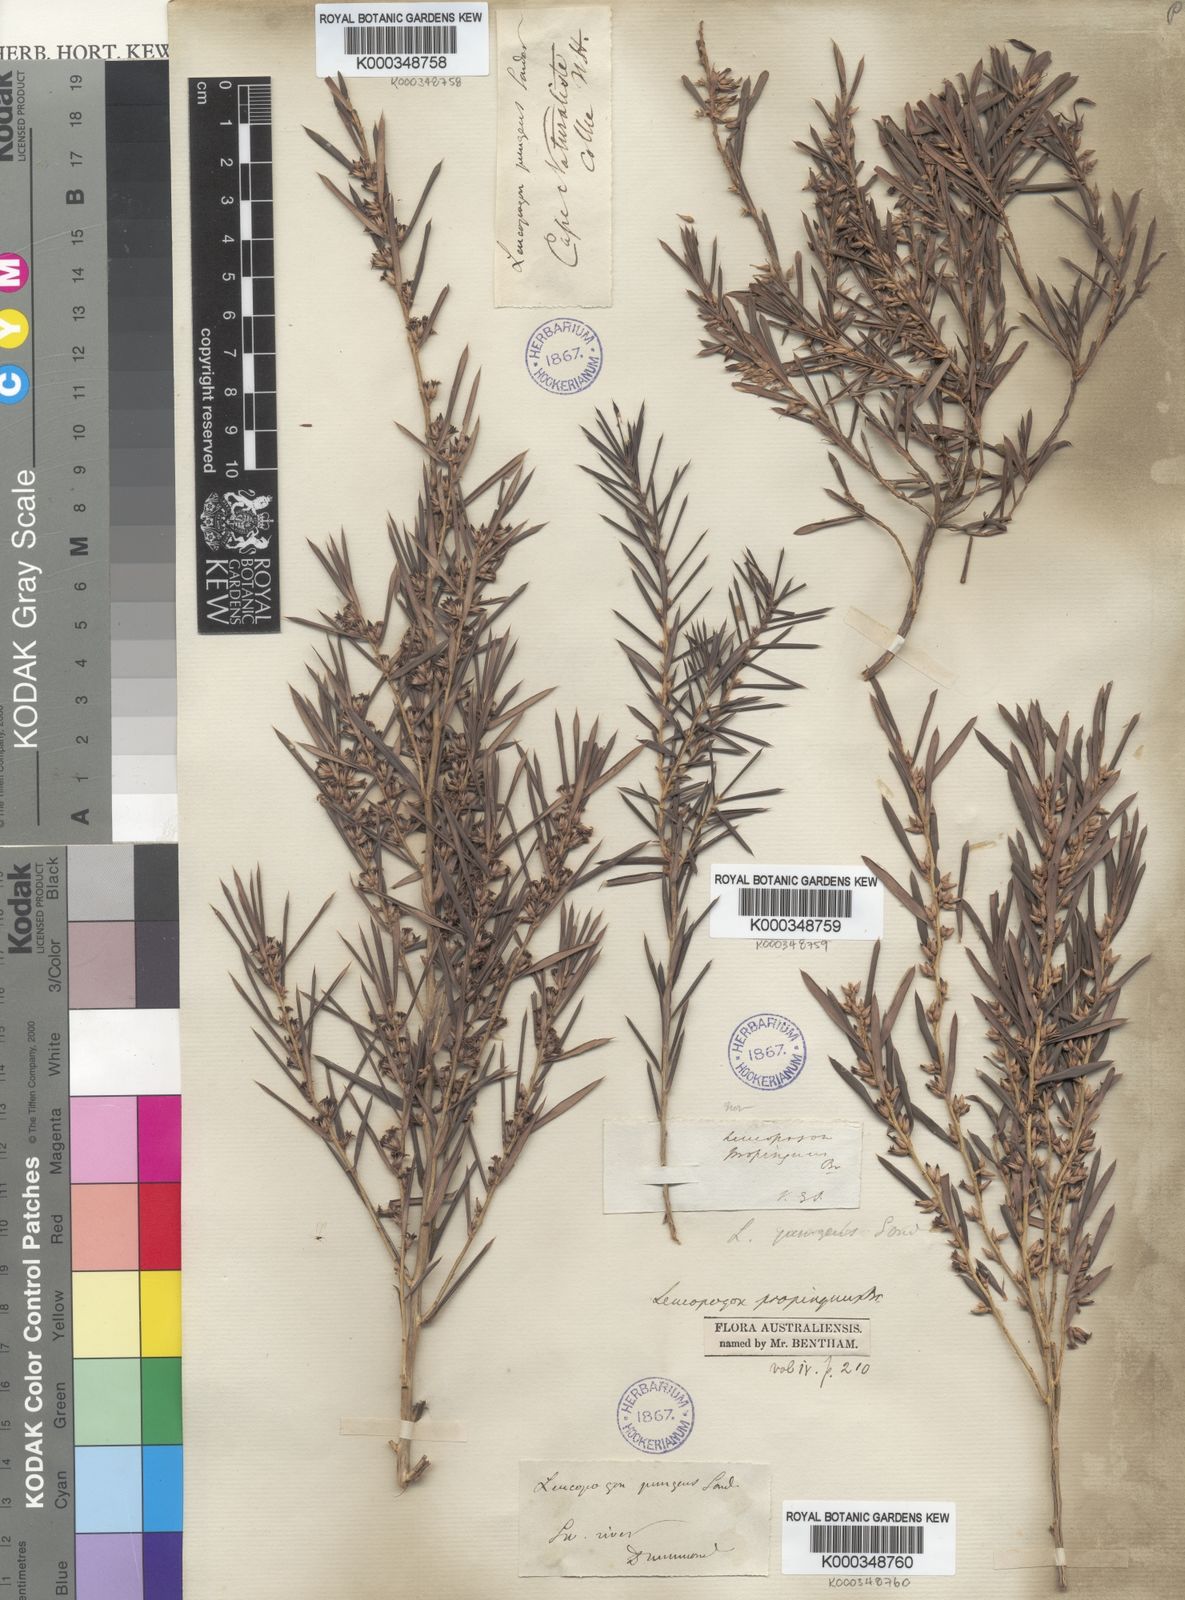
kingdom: Plantae
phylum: Tracheophyta
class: Magnoliopsida
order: Ericales
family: Ericaceae
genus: Styphelia
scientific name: Styphelia propinqua
